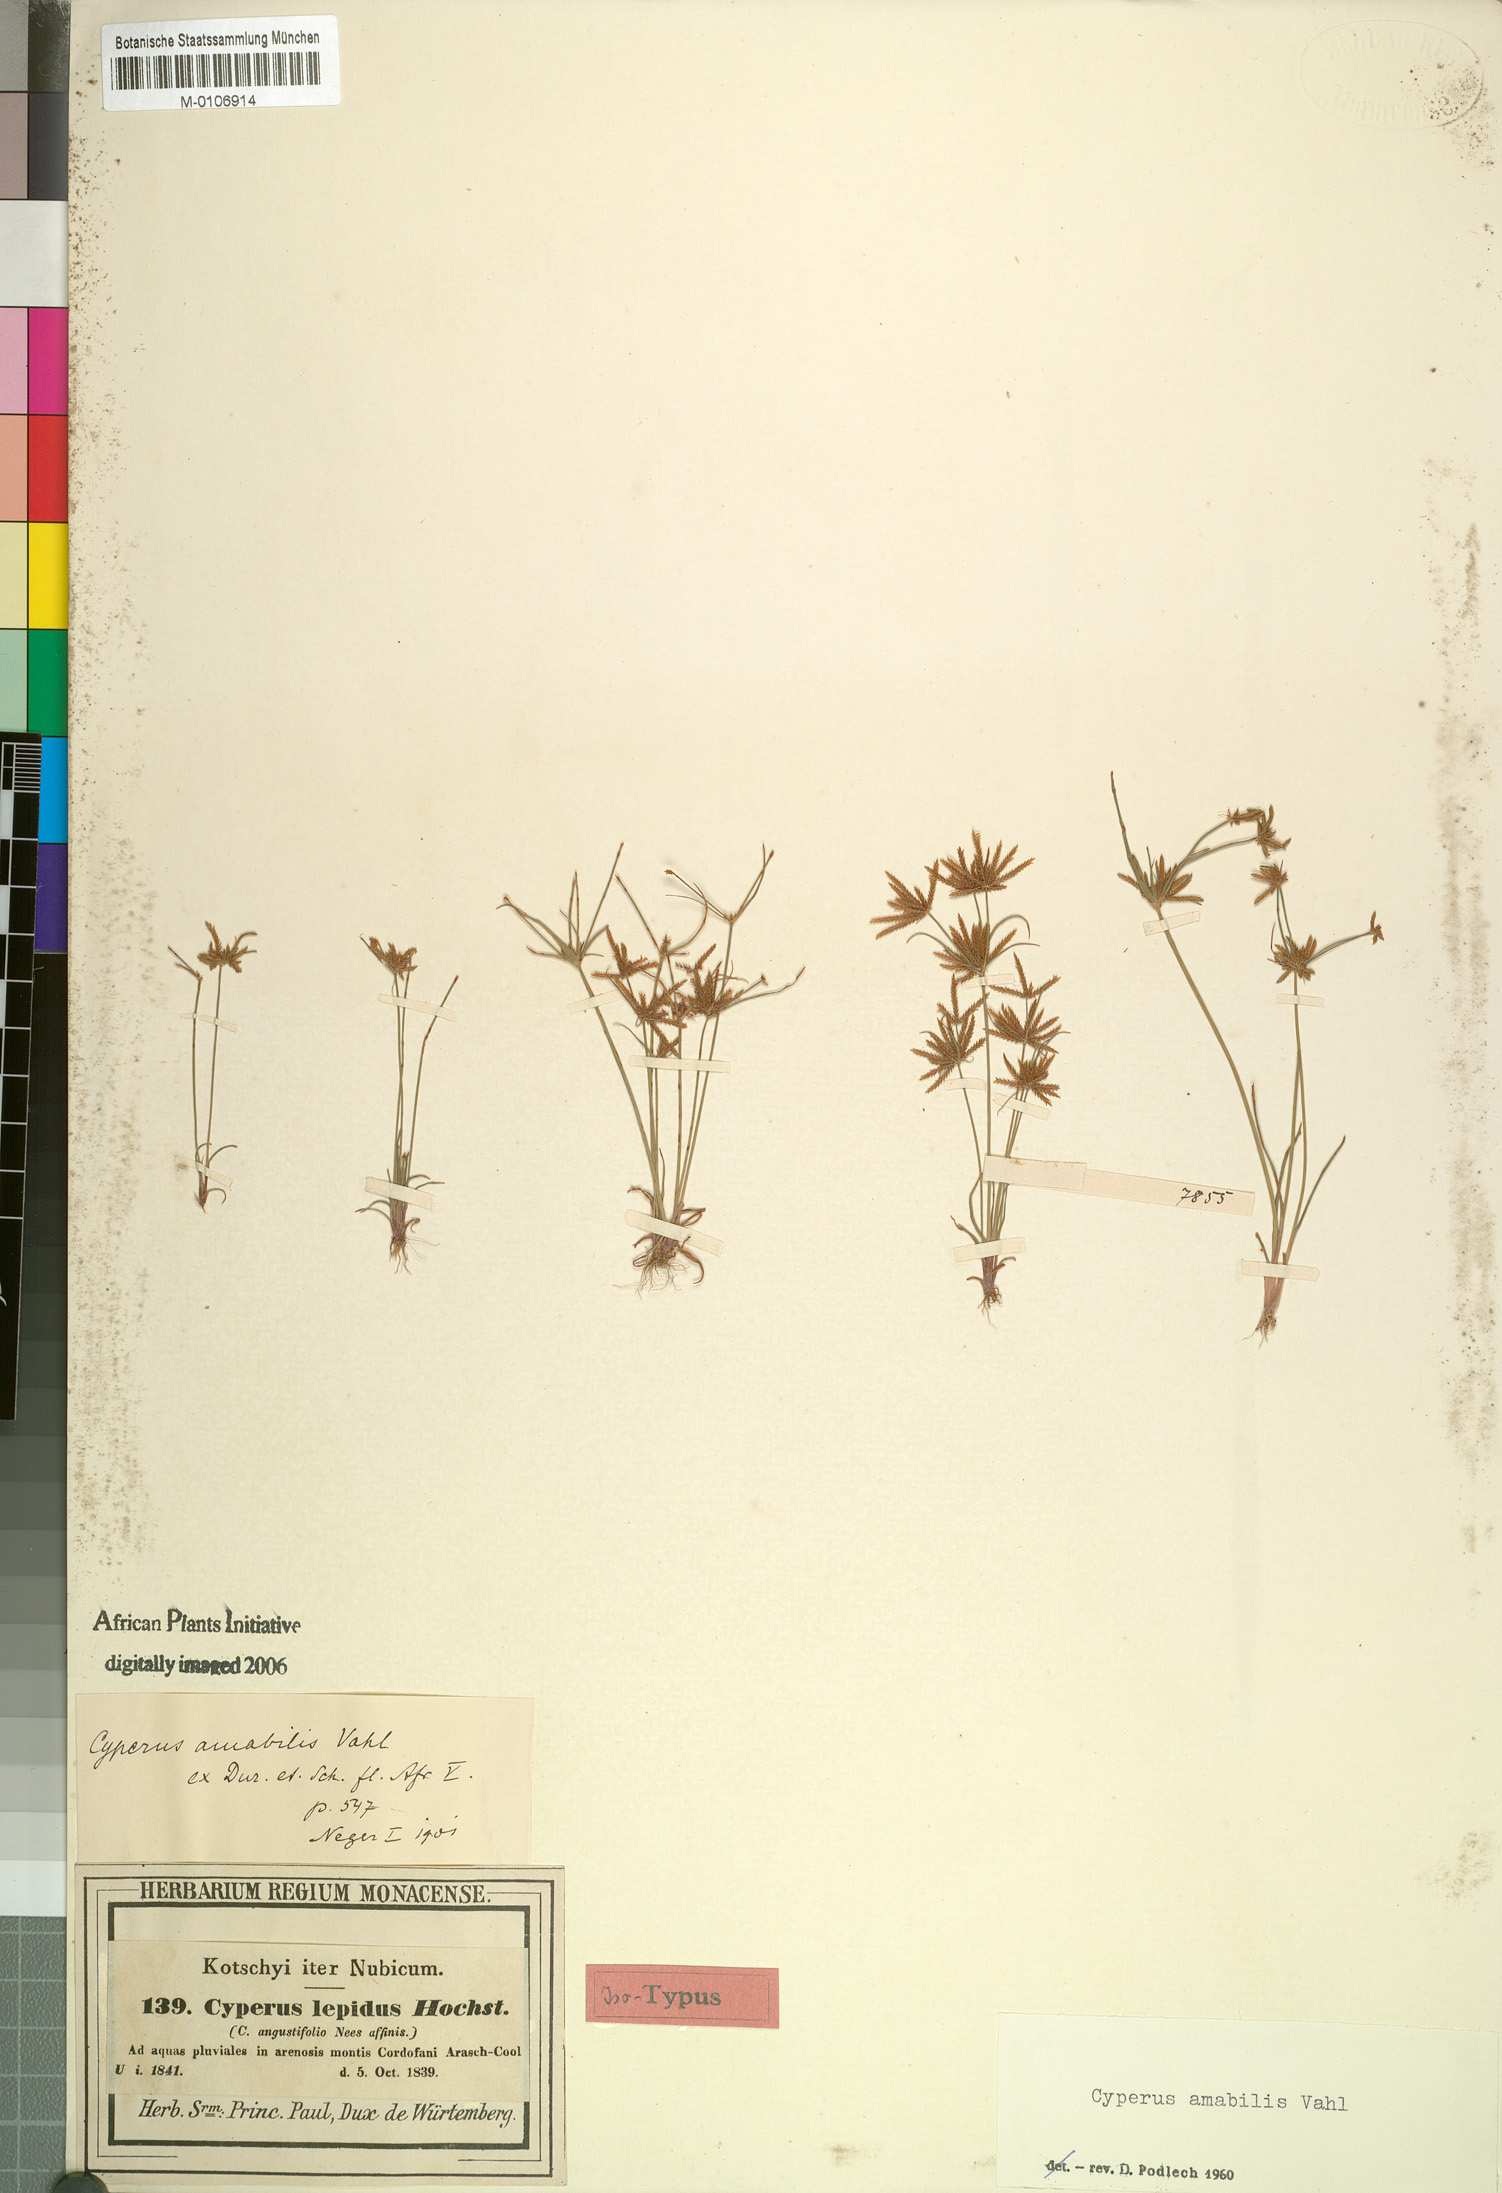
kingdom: Plantae
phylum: Tracheophyta
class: Liliopsida
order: Poales
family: Cyperaceae
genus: Cyperus
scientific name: Cyperus amabilis
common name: Foothill flat sedge
